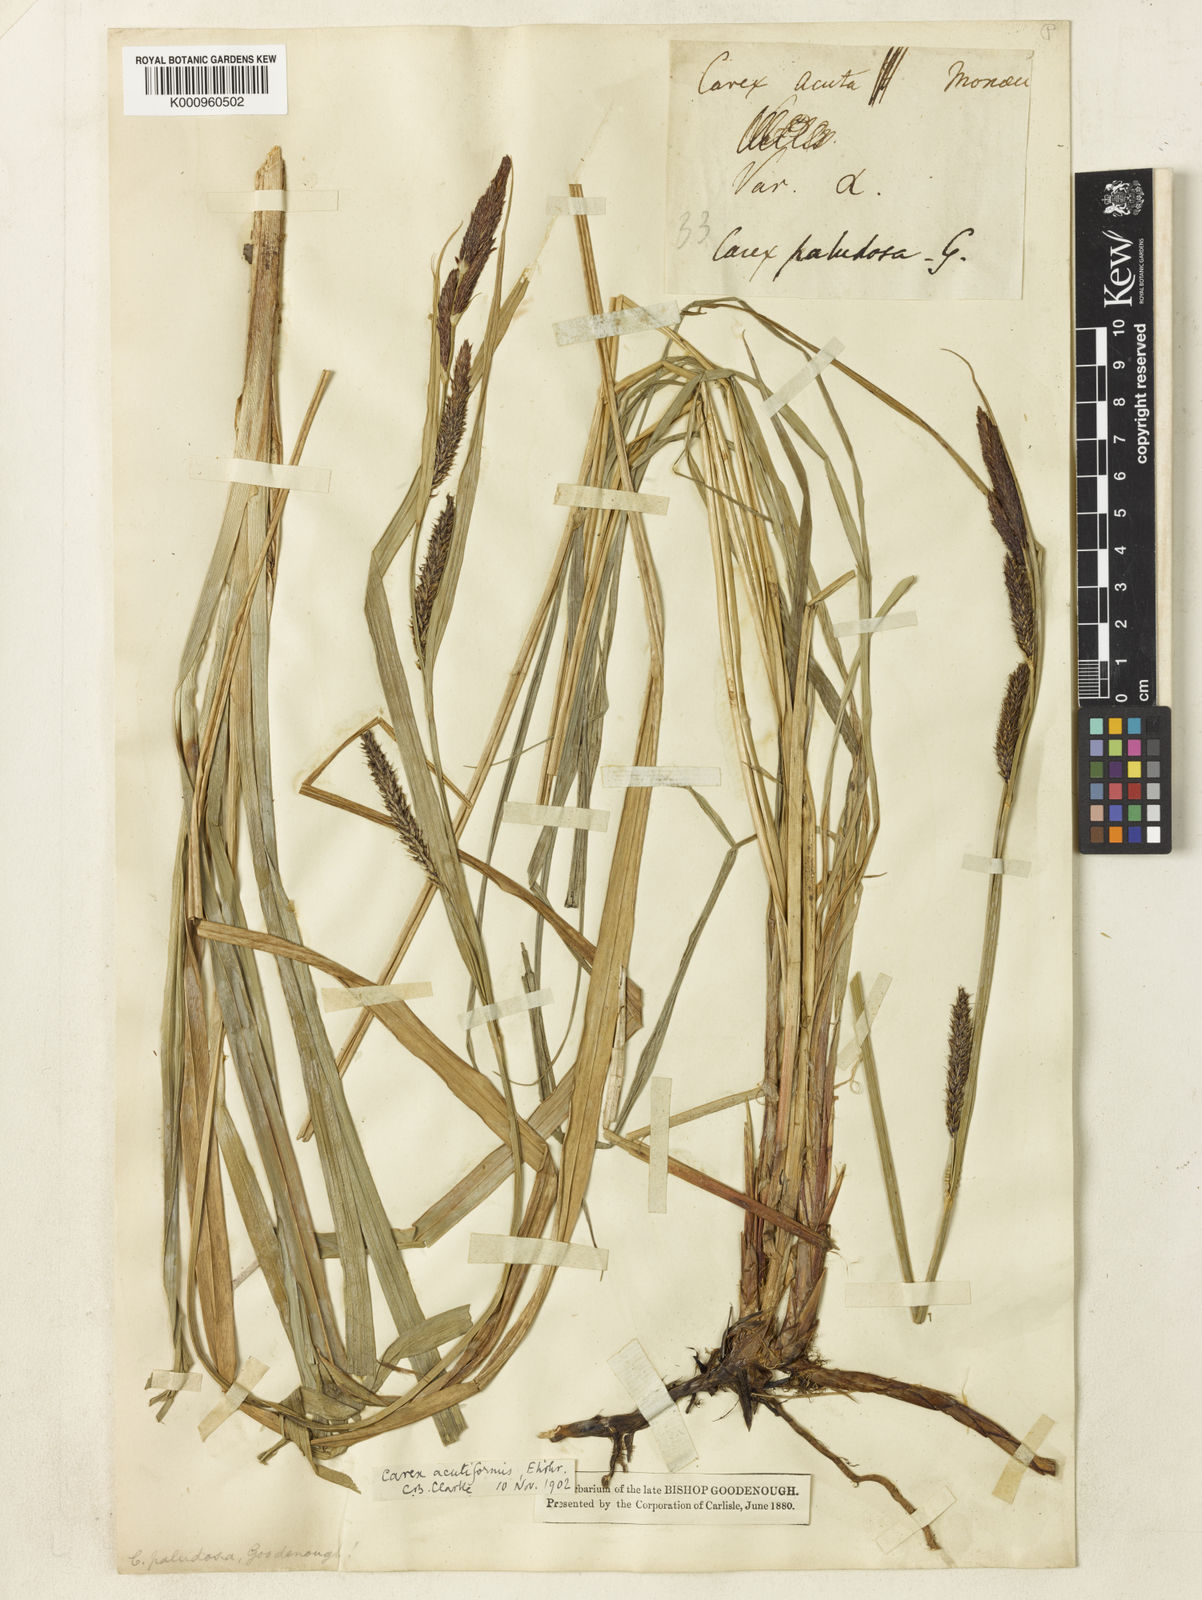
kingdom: Plantae
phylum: Tracheophyta
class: Liliopsida
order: Poales
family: Cyperaceae
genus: Carex
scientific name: Carex acutiformis
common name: Lesser pond-sedge
